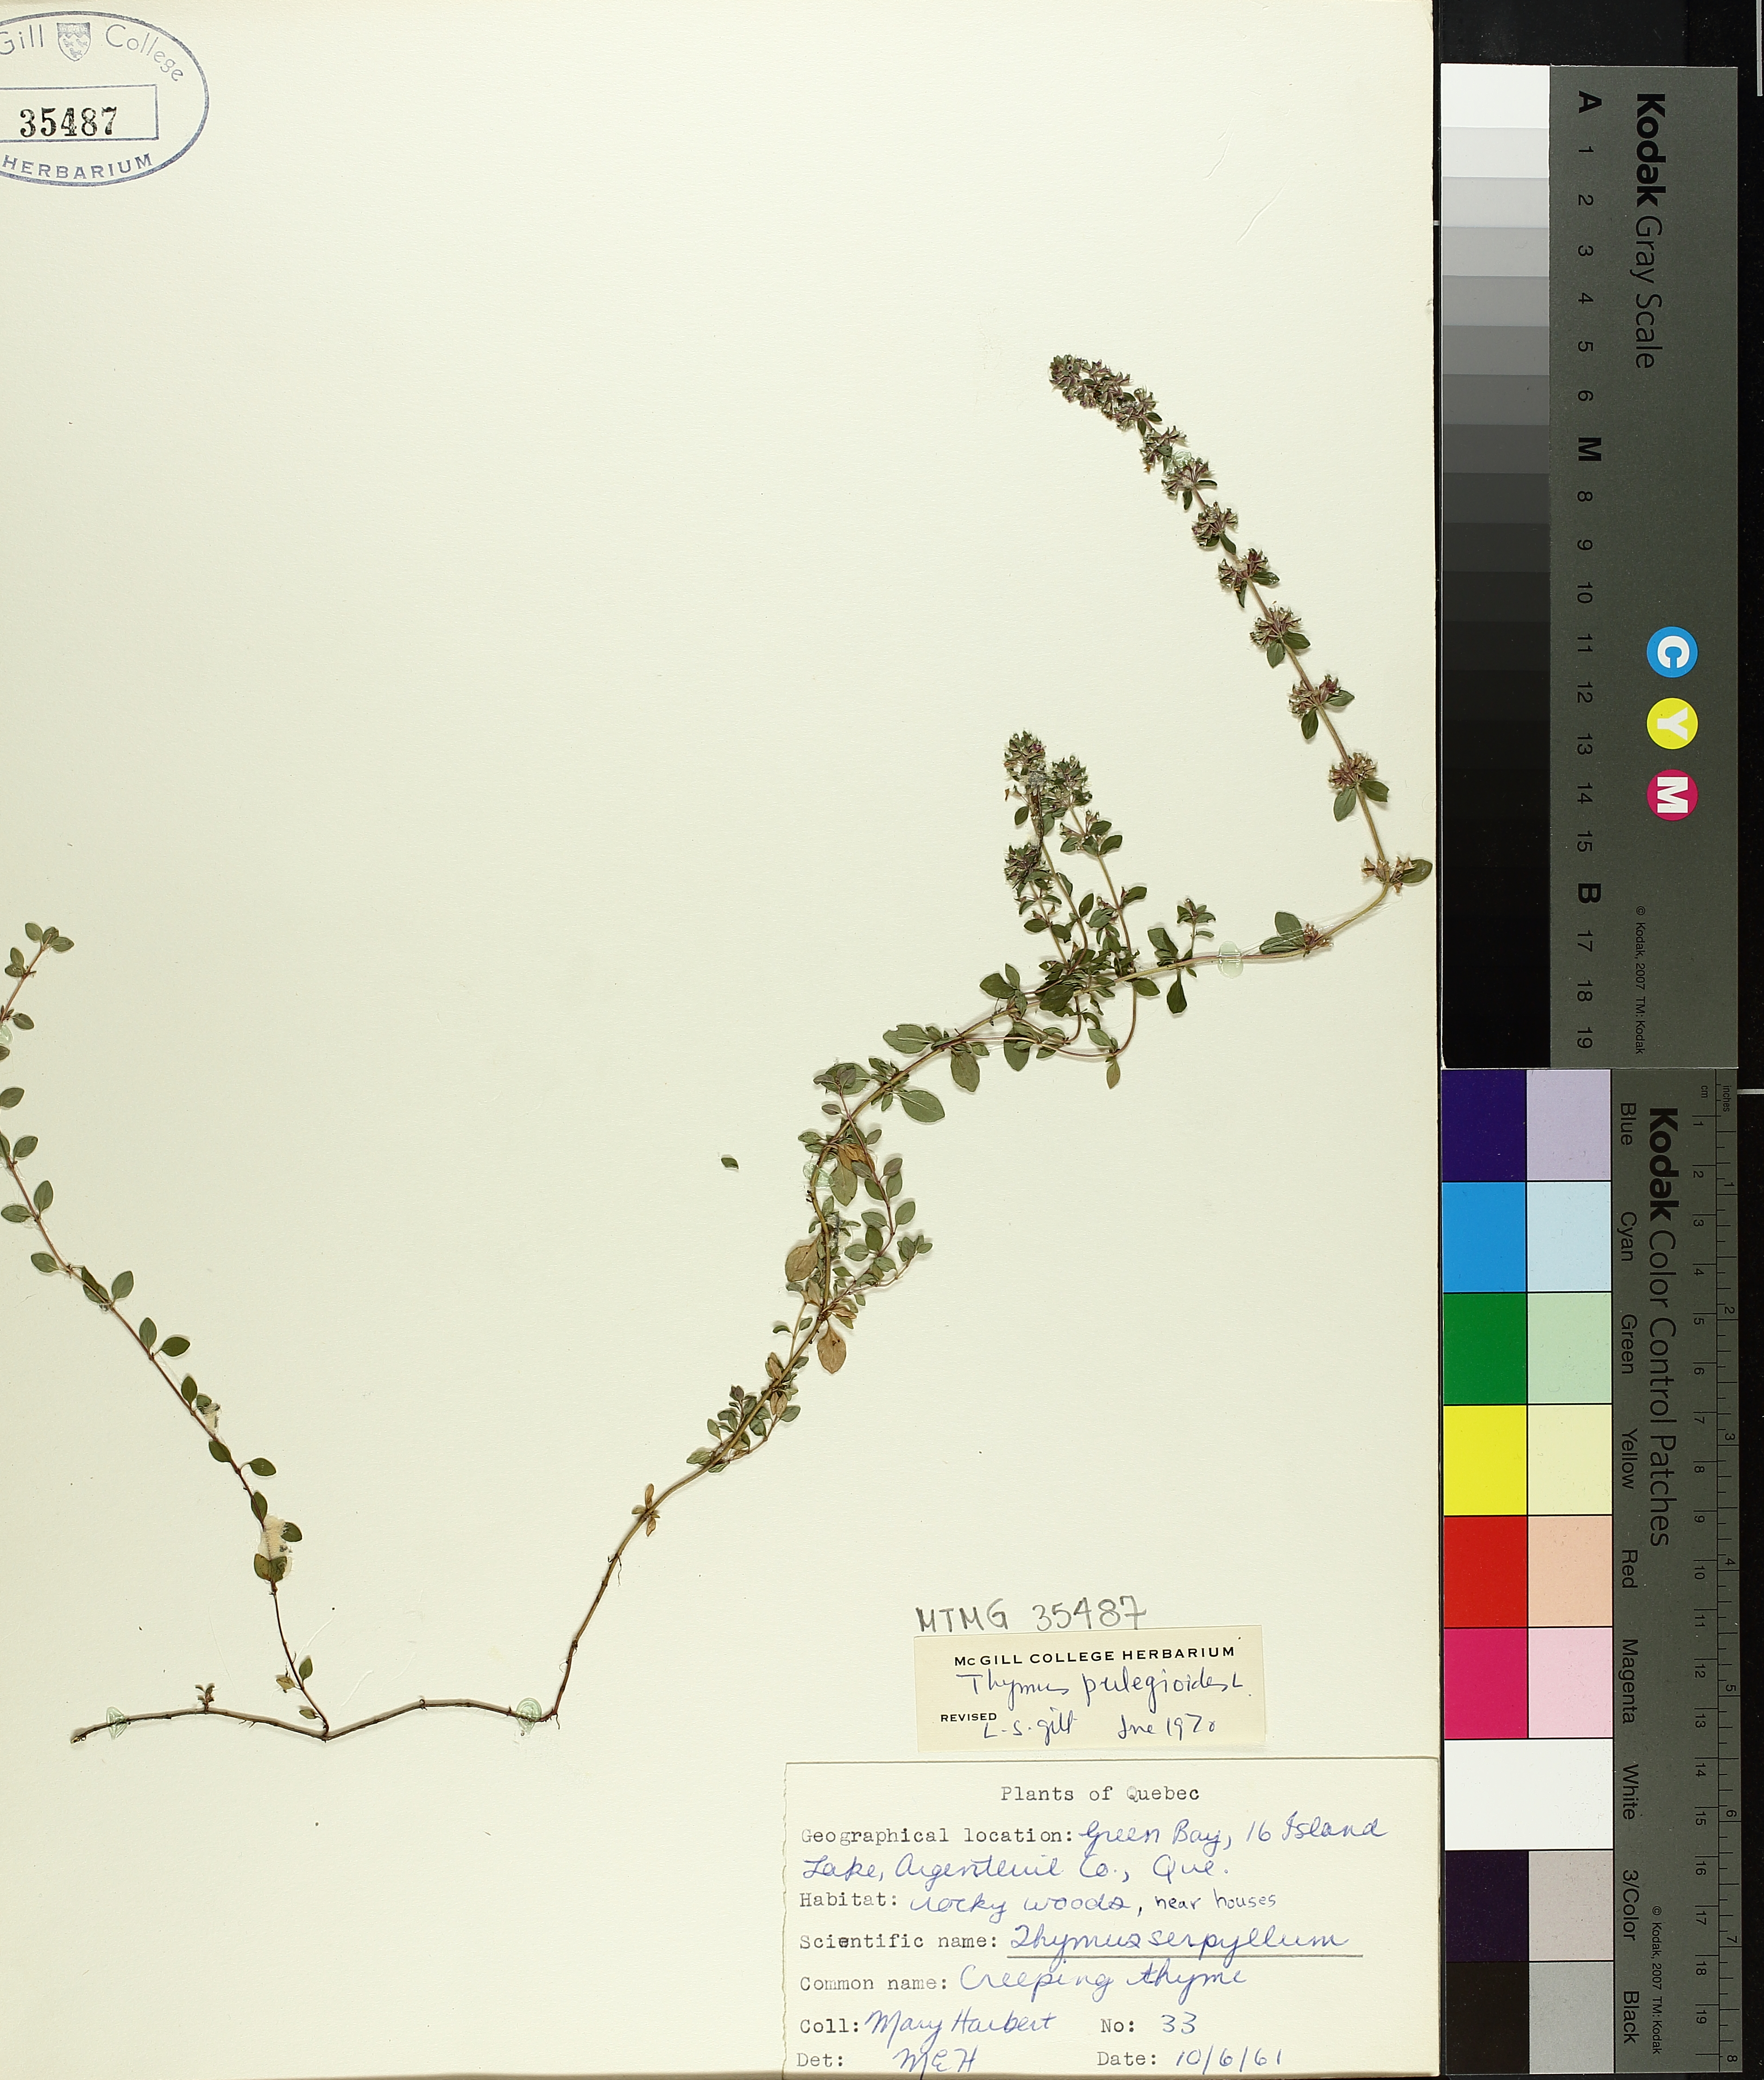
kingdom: Plantae
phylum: Tracheophyta
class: Magnoliopsida
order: Lamiales
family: Lamiaceae
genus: Thymus
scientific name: Thymus pulegioides
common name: Large thyme
